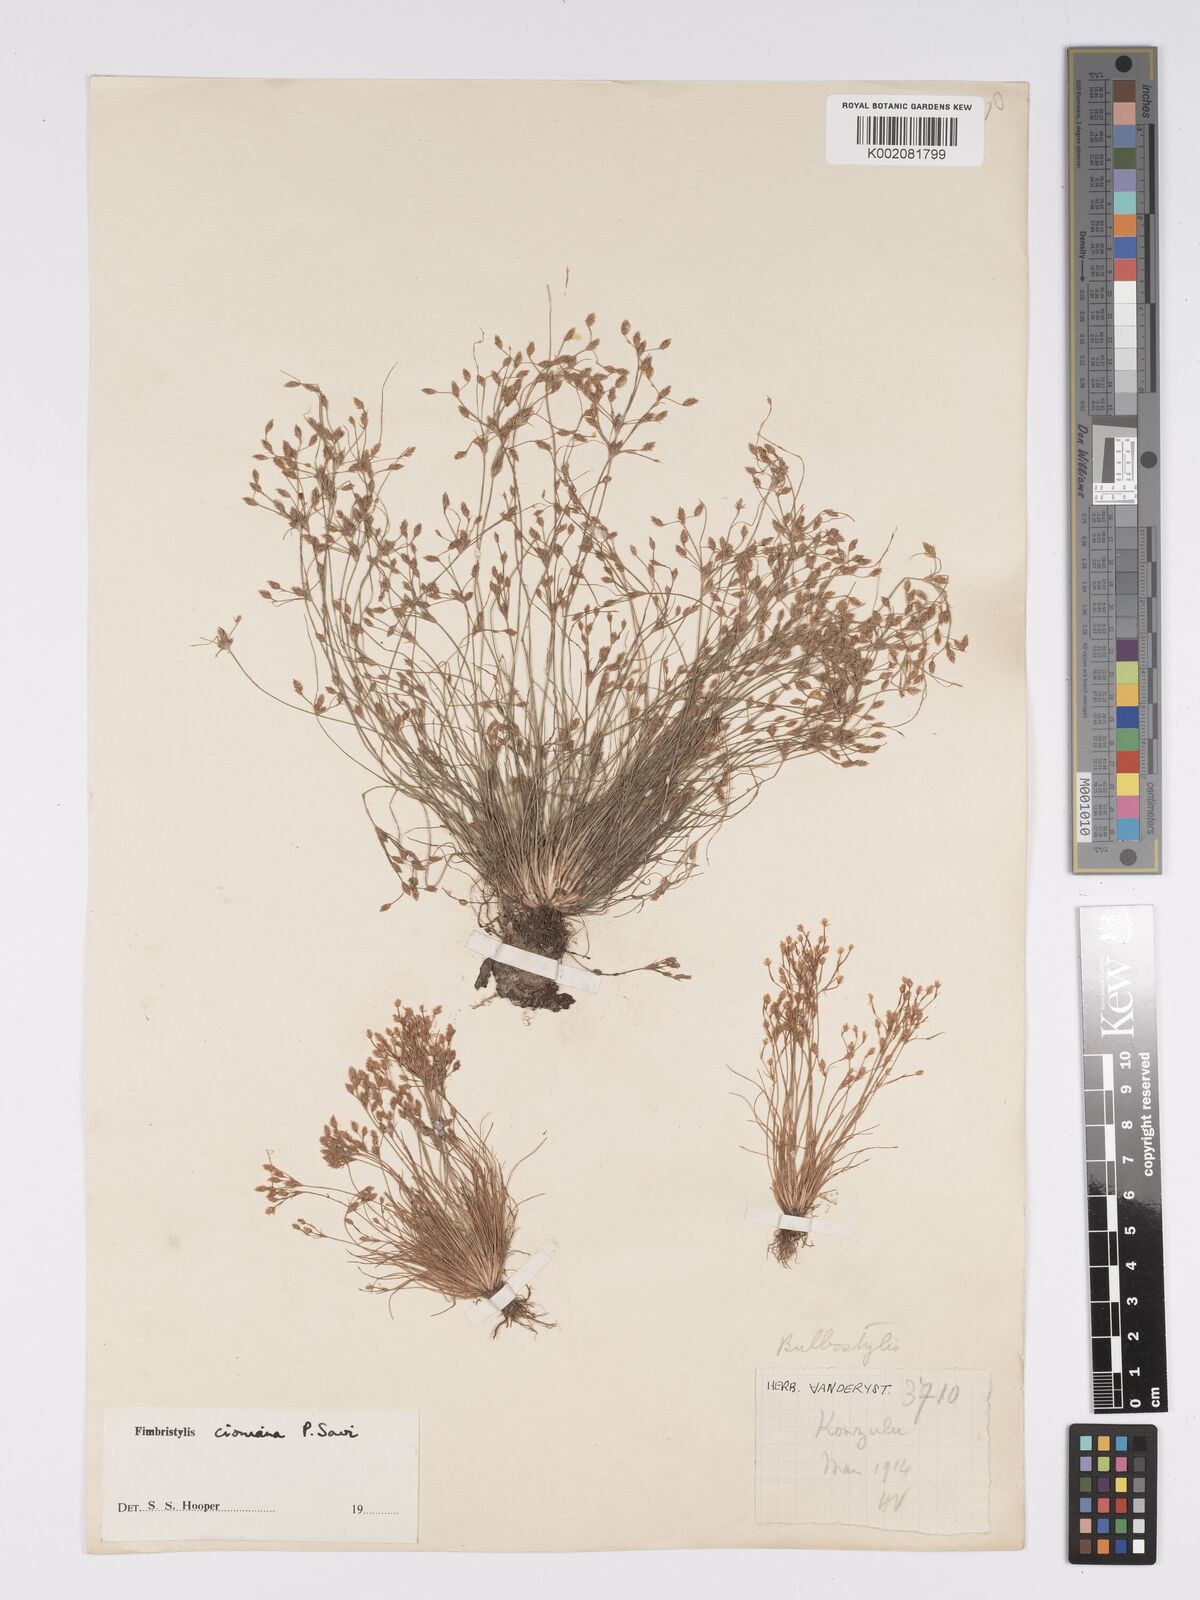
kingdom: Plantae
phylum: Tracheophyta
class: Liliopsida
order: Poales
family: Cyperaceae
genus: Bulbostylis
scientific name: Bulbostylis cioniana
